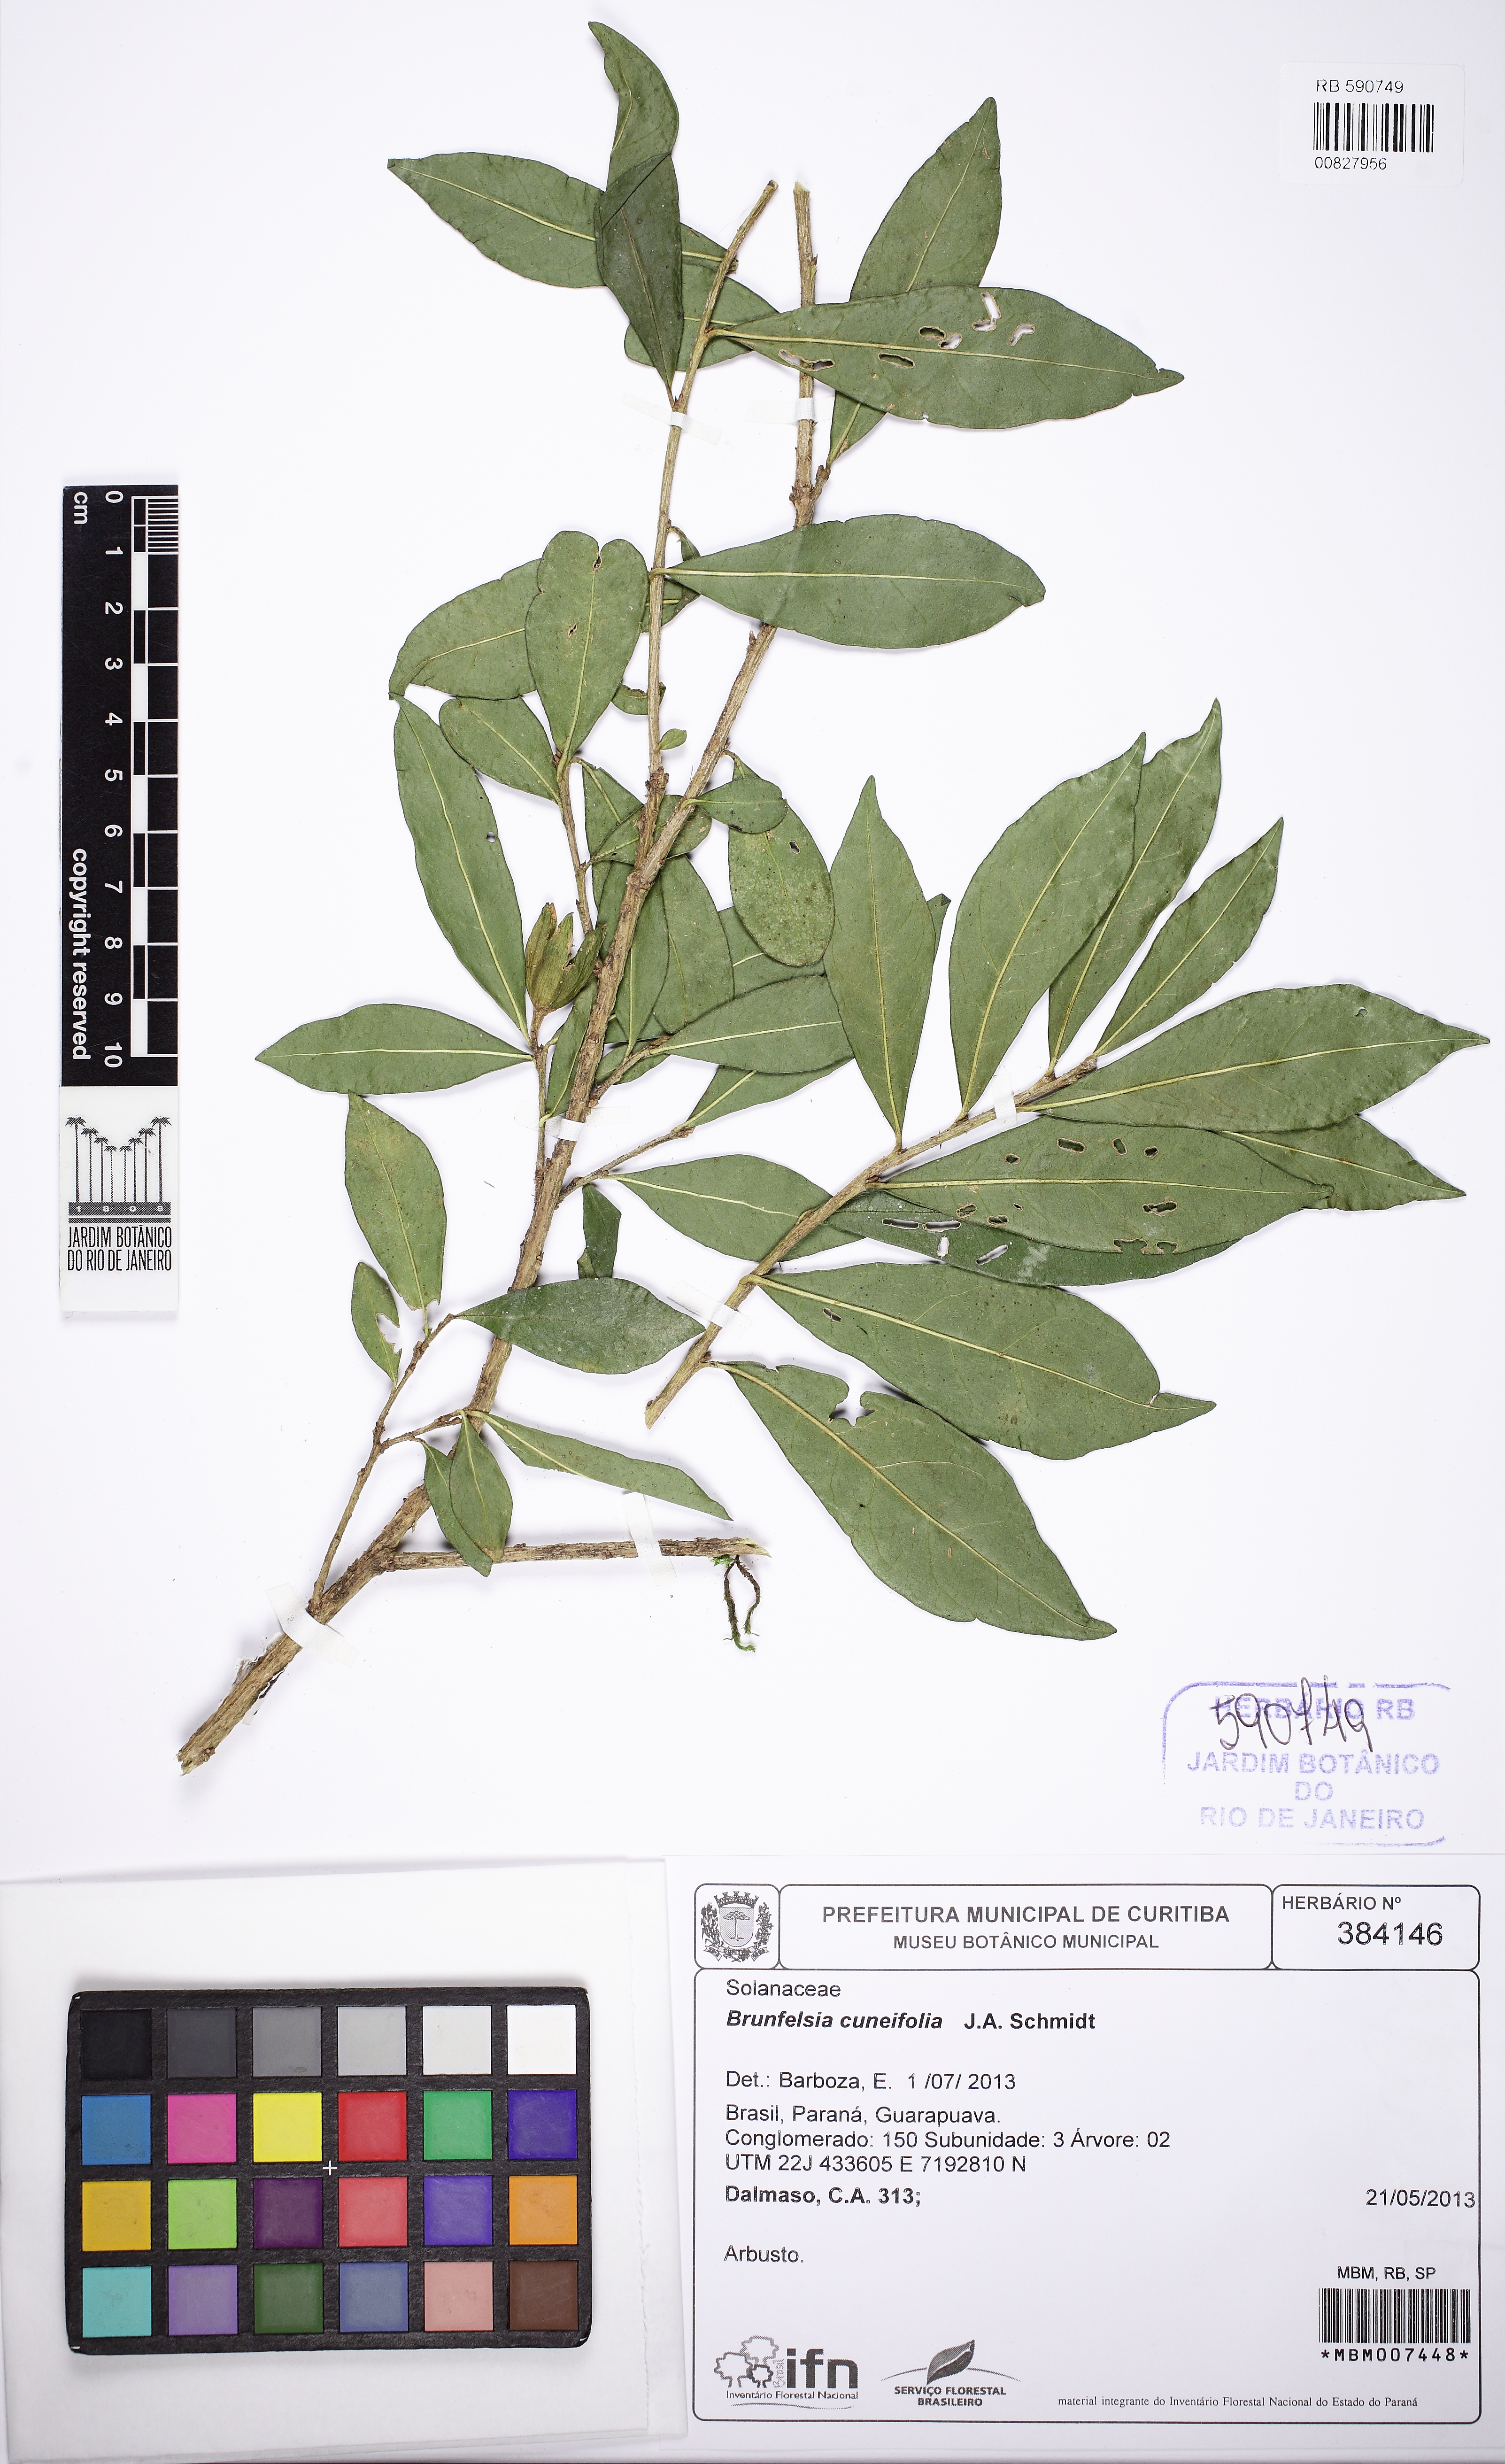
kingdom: Plantae
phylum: Tracheophyta
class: Magnoliopsida
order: Solanales
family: Solanaceae
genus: Brunfelsia
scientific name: Brunfelsia cuneifolia
